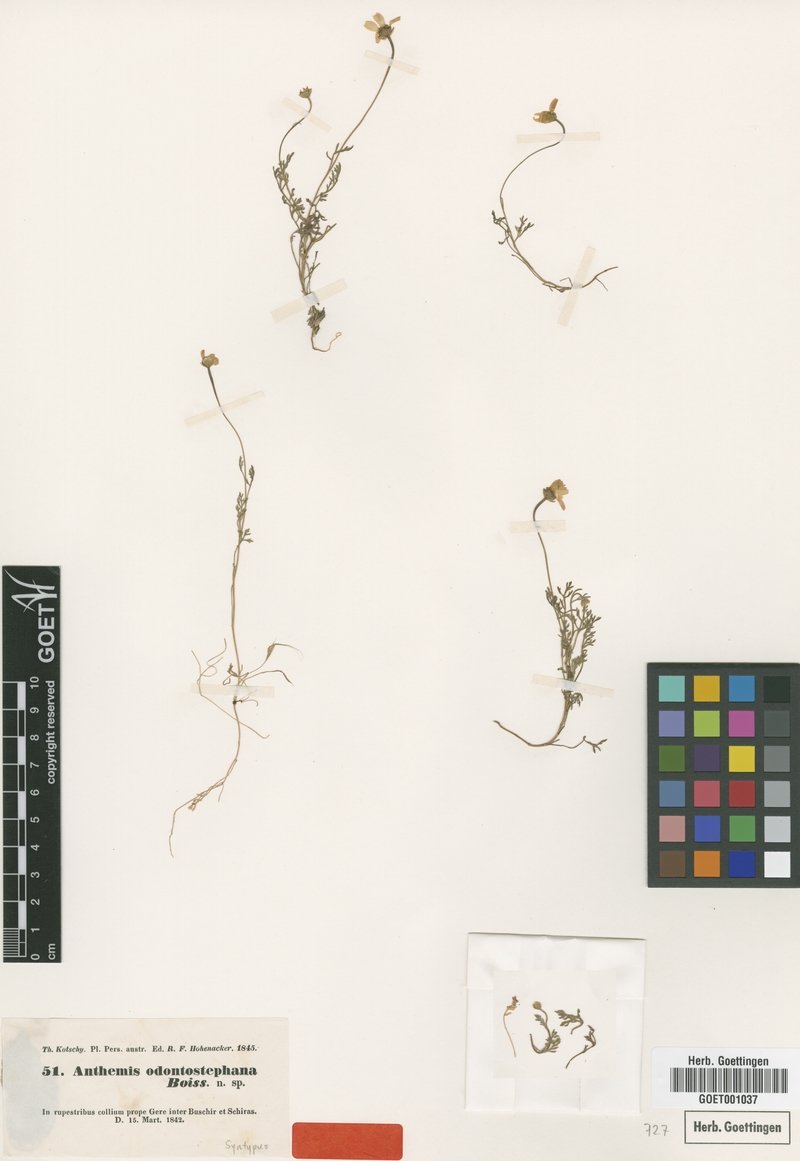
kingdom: Plantae
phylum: Tracheophyta
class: Magnoliopsida
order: Asterales
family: Asteraceae
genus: Anthemis
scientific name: Anthemis odontostephana
